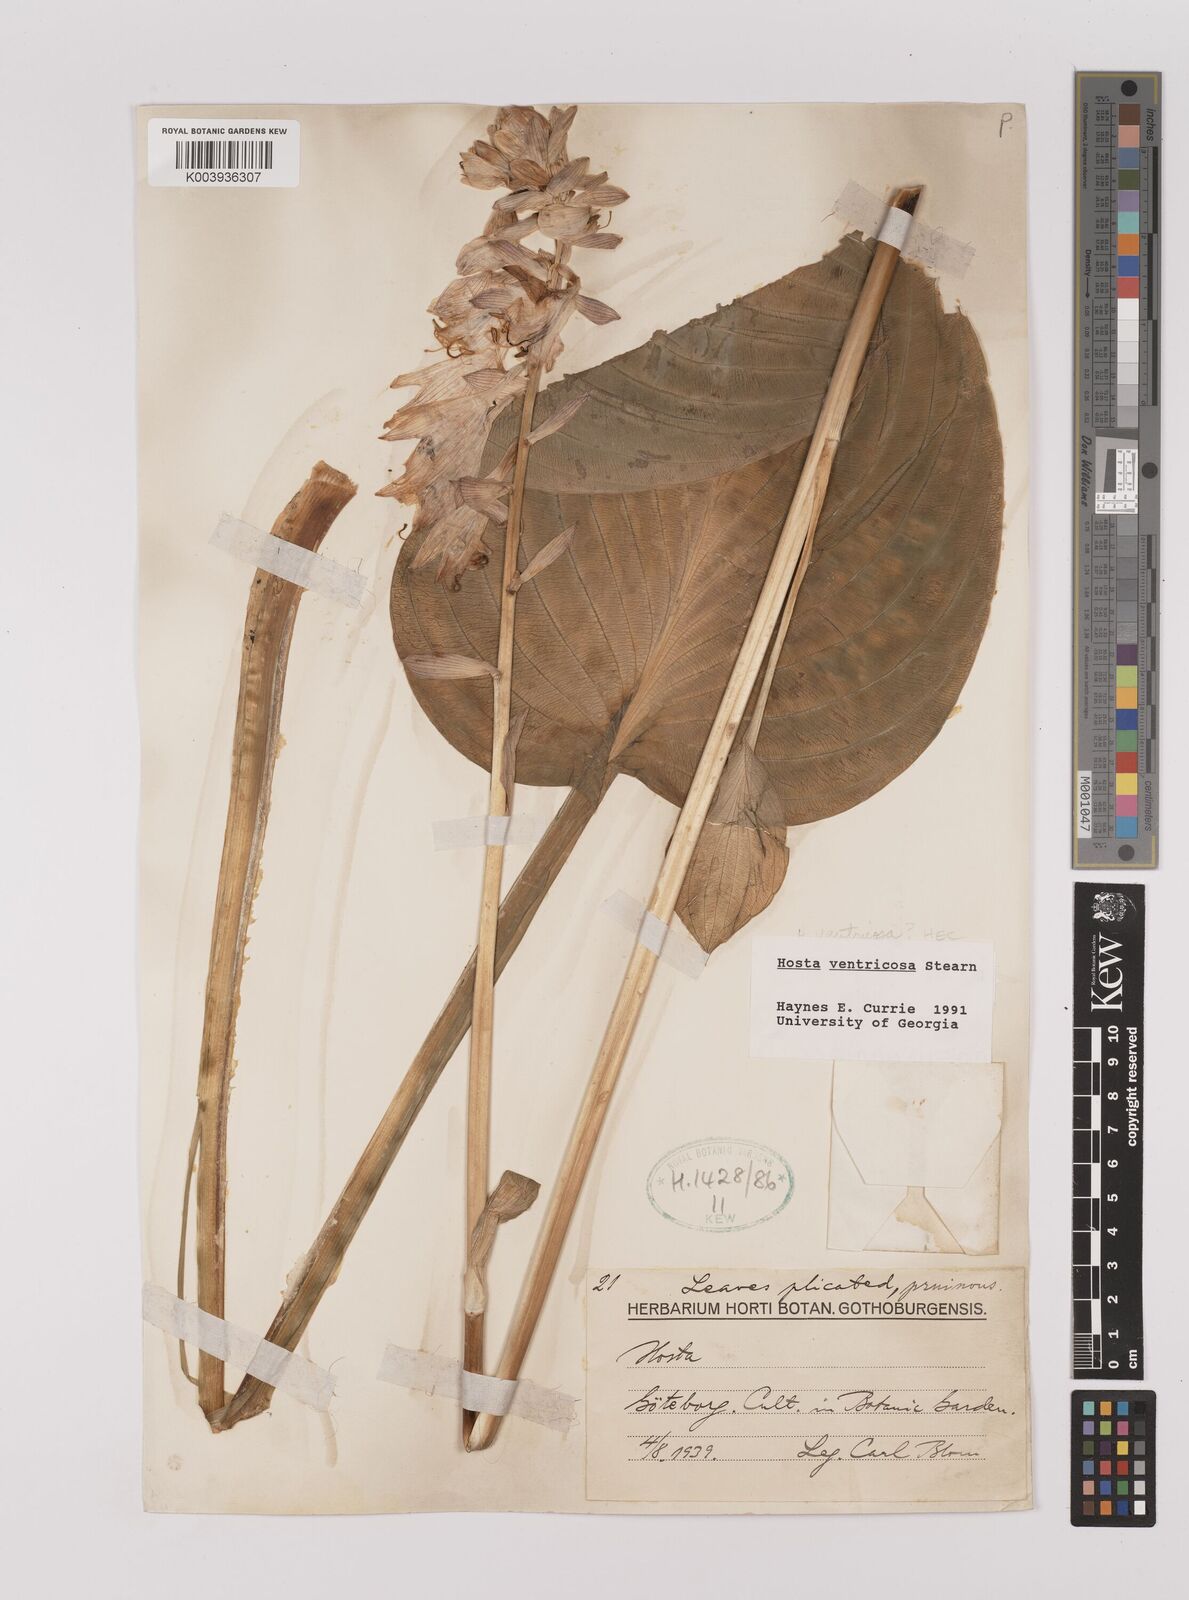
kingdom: Plantae
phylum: Tracheophyta
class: Liliopsida
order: Asparagales
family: Asparagaceae
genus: Hosta
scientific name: Hosta ventricosa
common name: Blue plantain-lily
